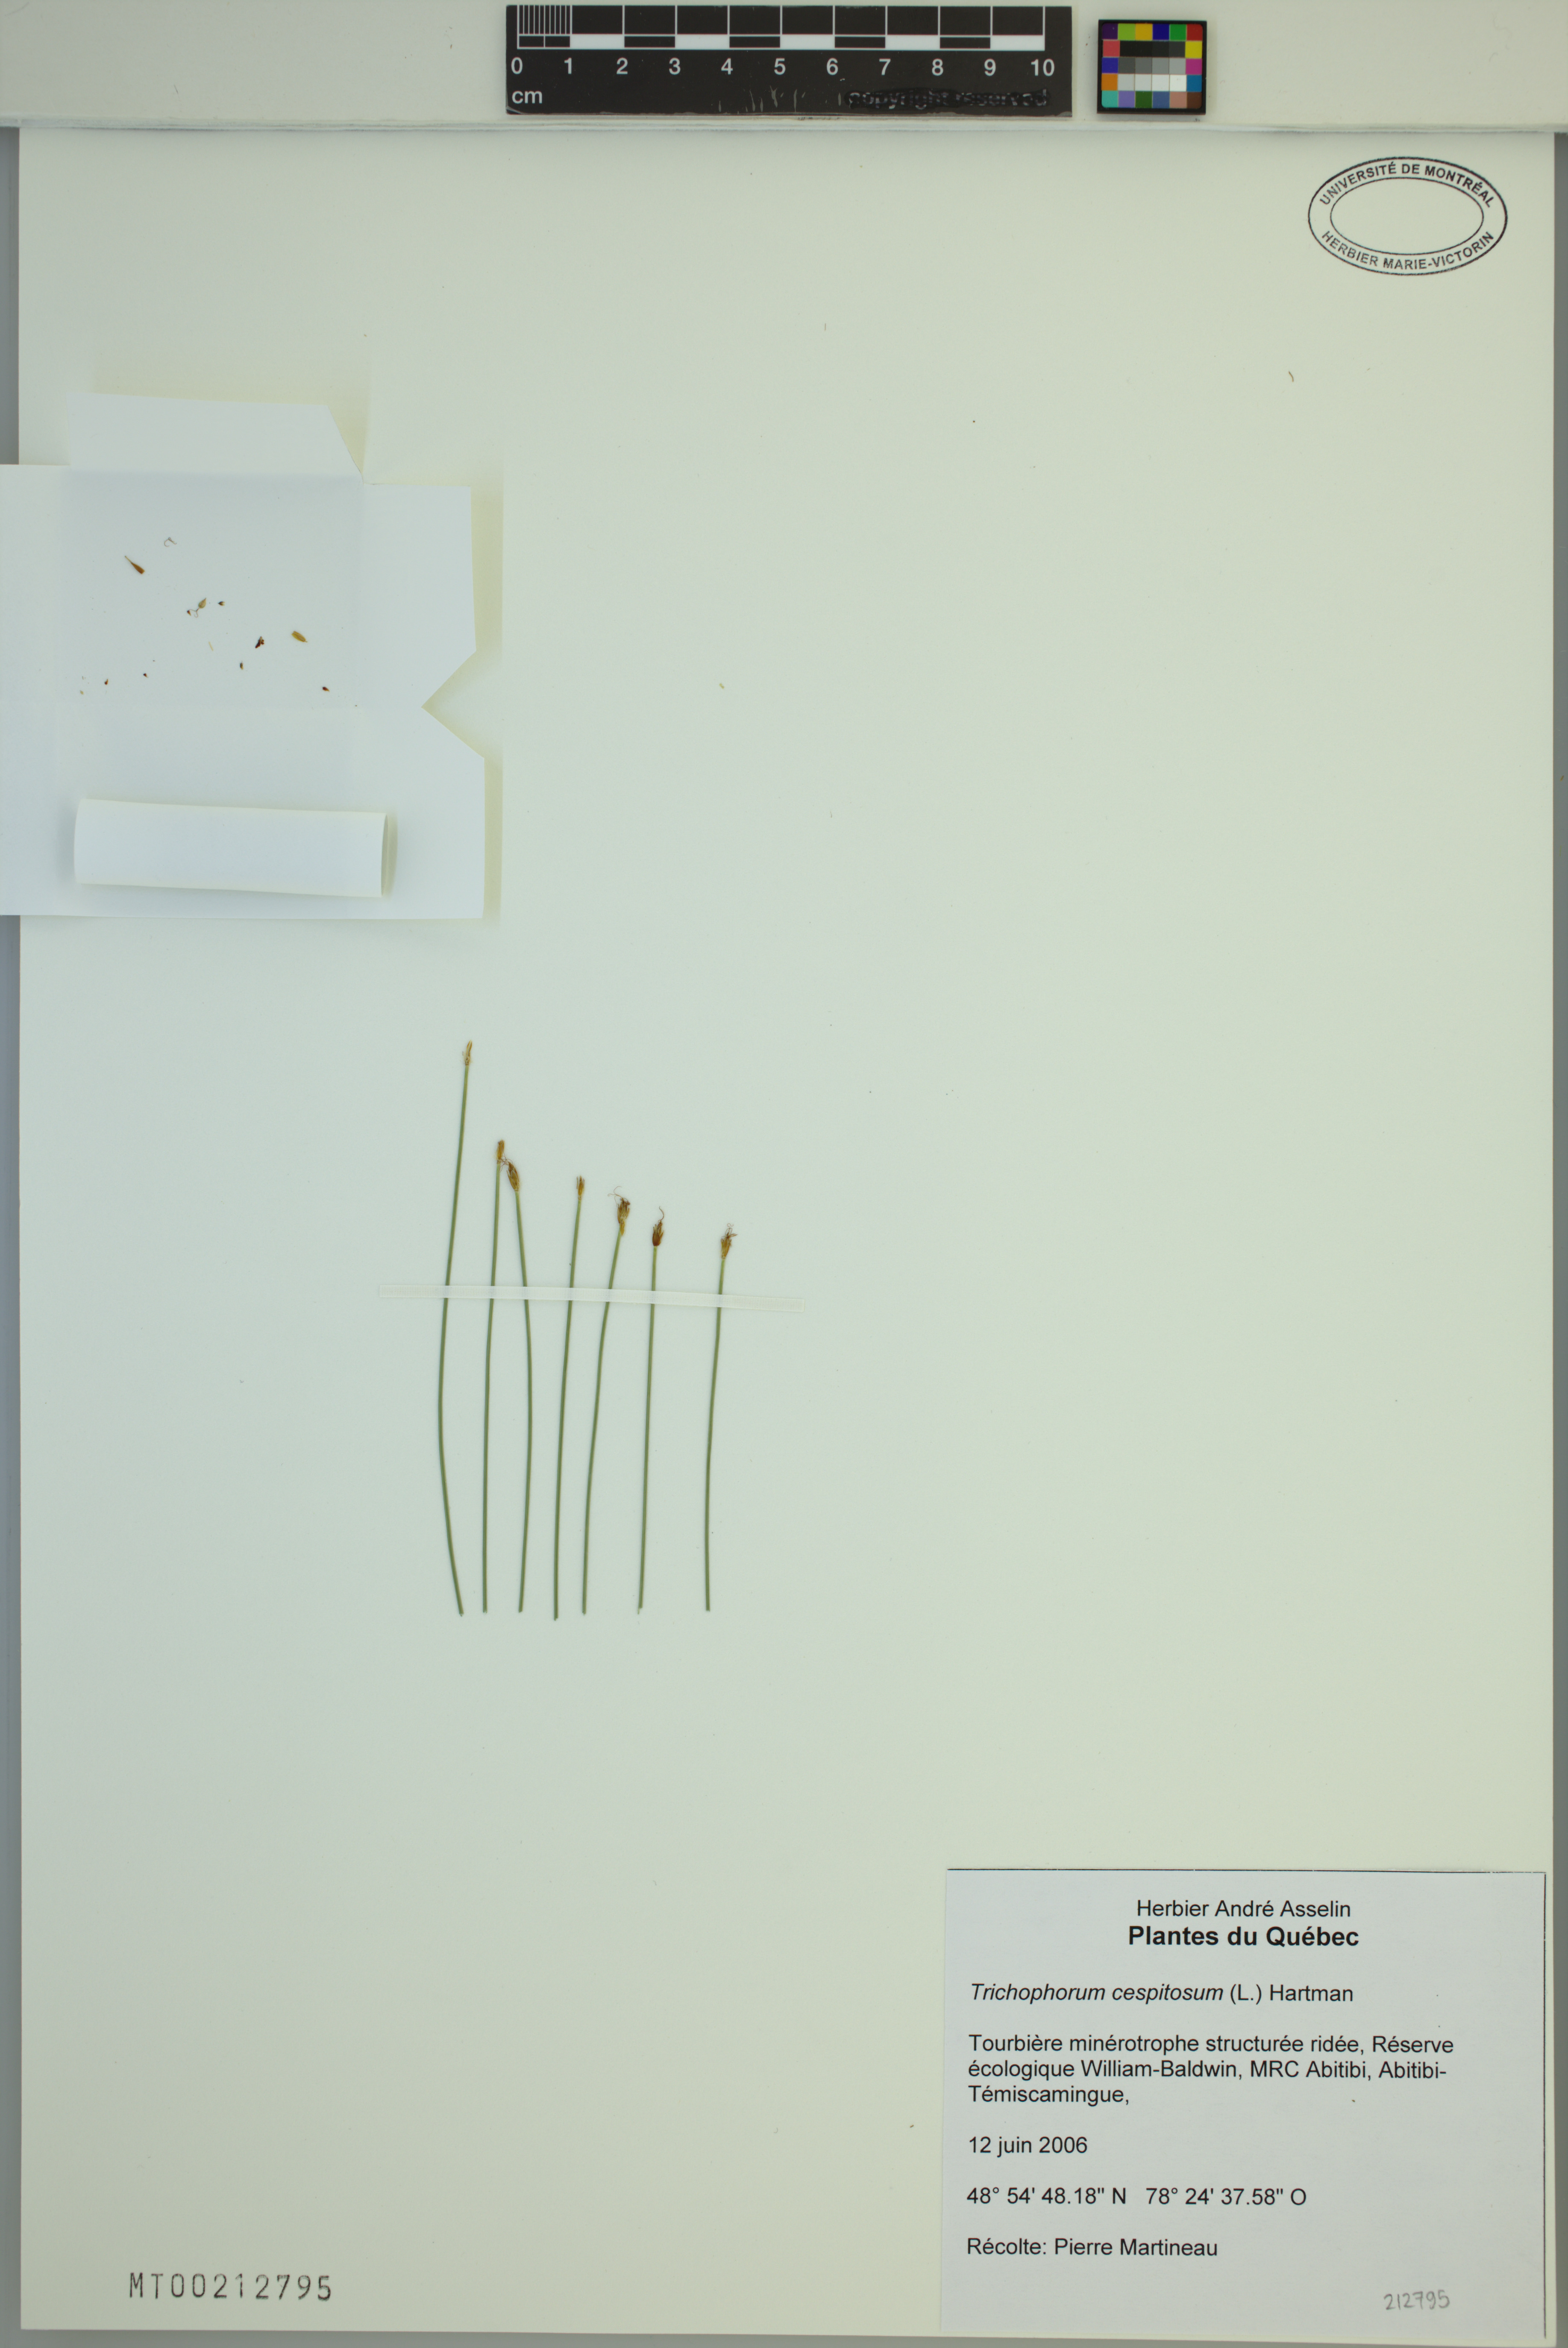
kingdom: Plantae
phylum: Tracheophyta
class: Liliopsida
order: Poales
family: Cyperaceae
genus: Trichophorum
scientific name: Trichophorum cespitosum
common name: Cespitose bulrush
